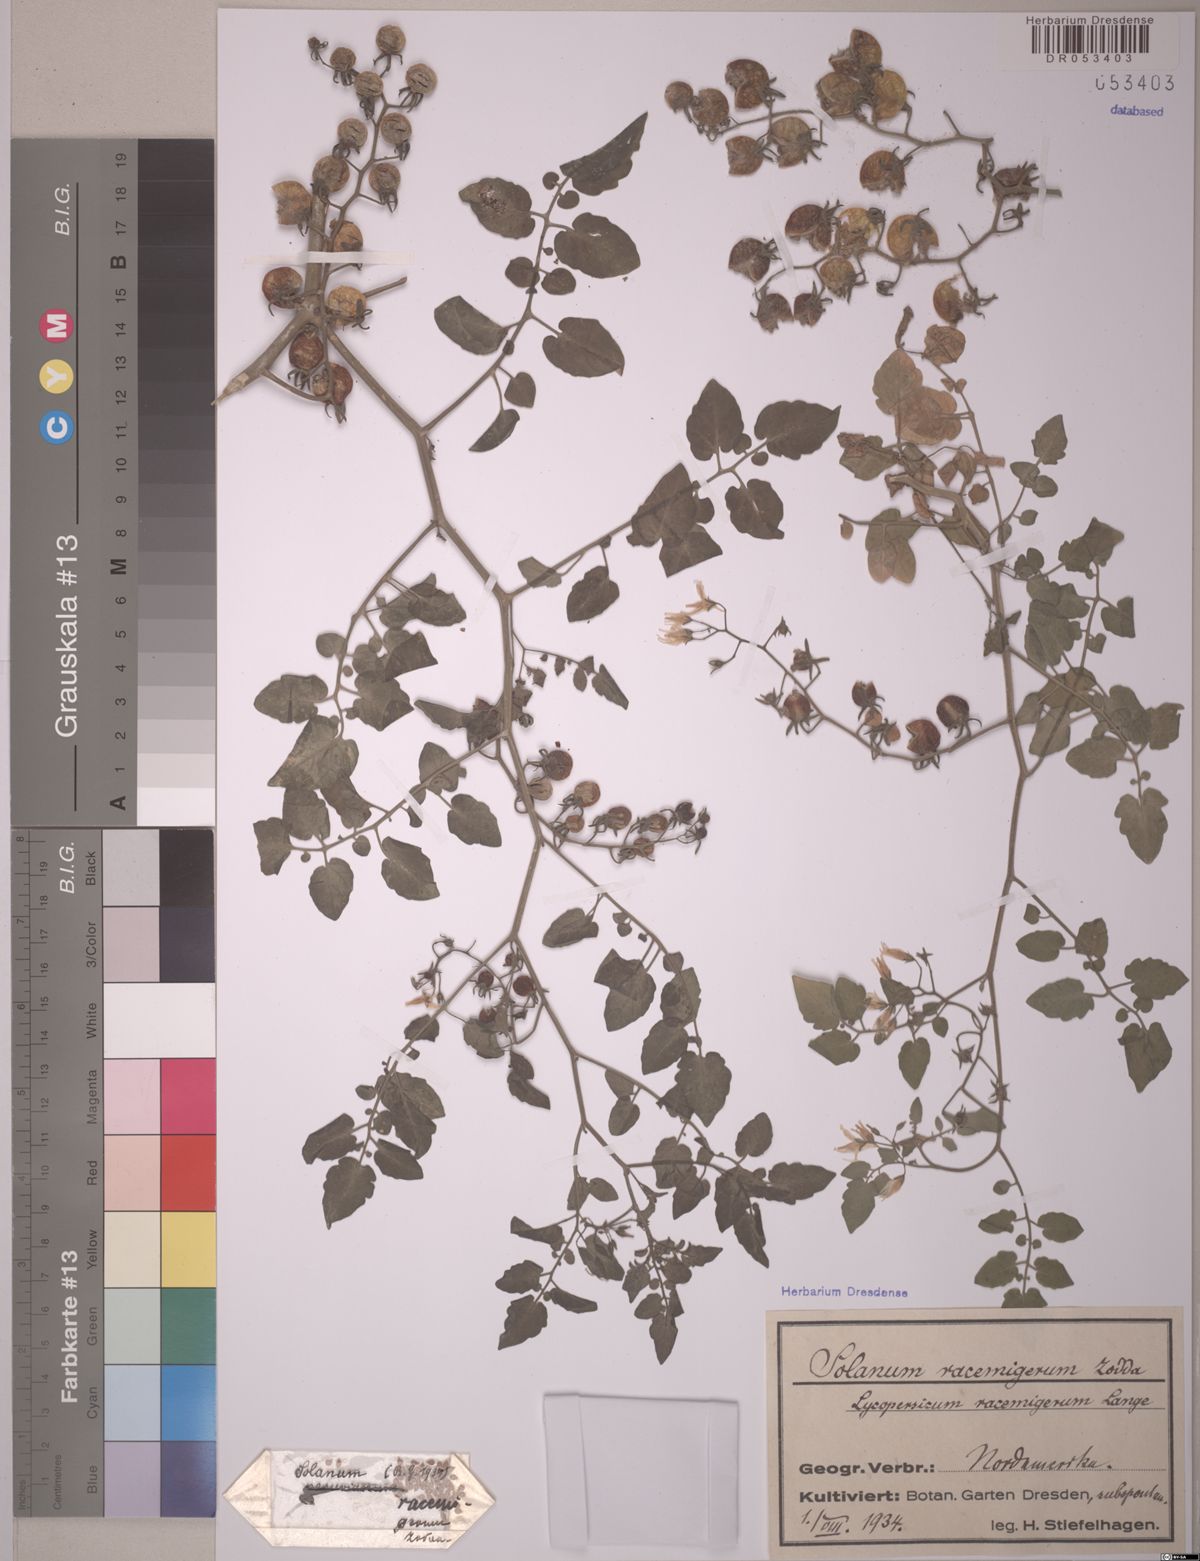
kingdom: Plantae
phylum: Tracheophyta
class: Magnoliopsida
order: Solanales
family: Solanaceae
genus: Solanum
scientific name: Solanum pimpinellifolium
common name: Currant-tomato
